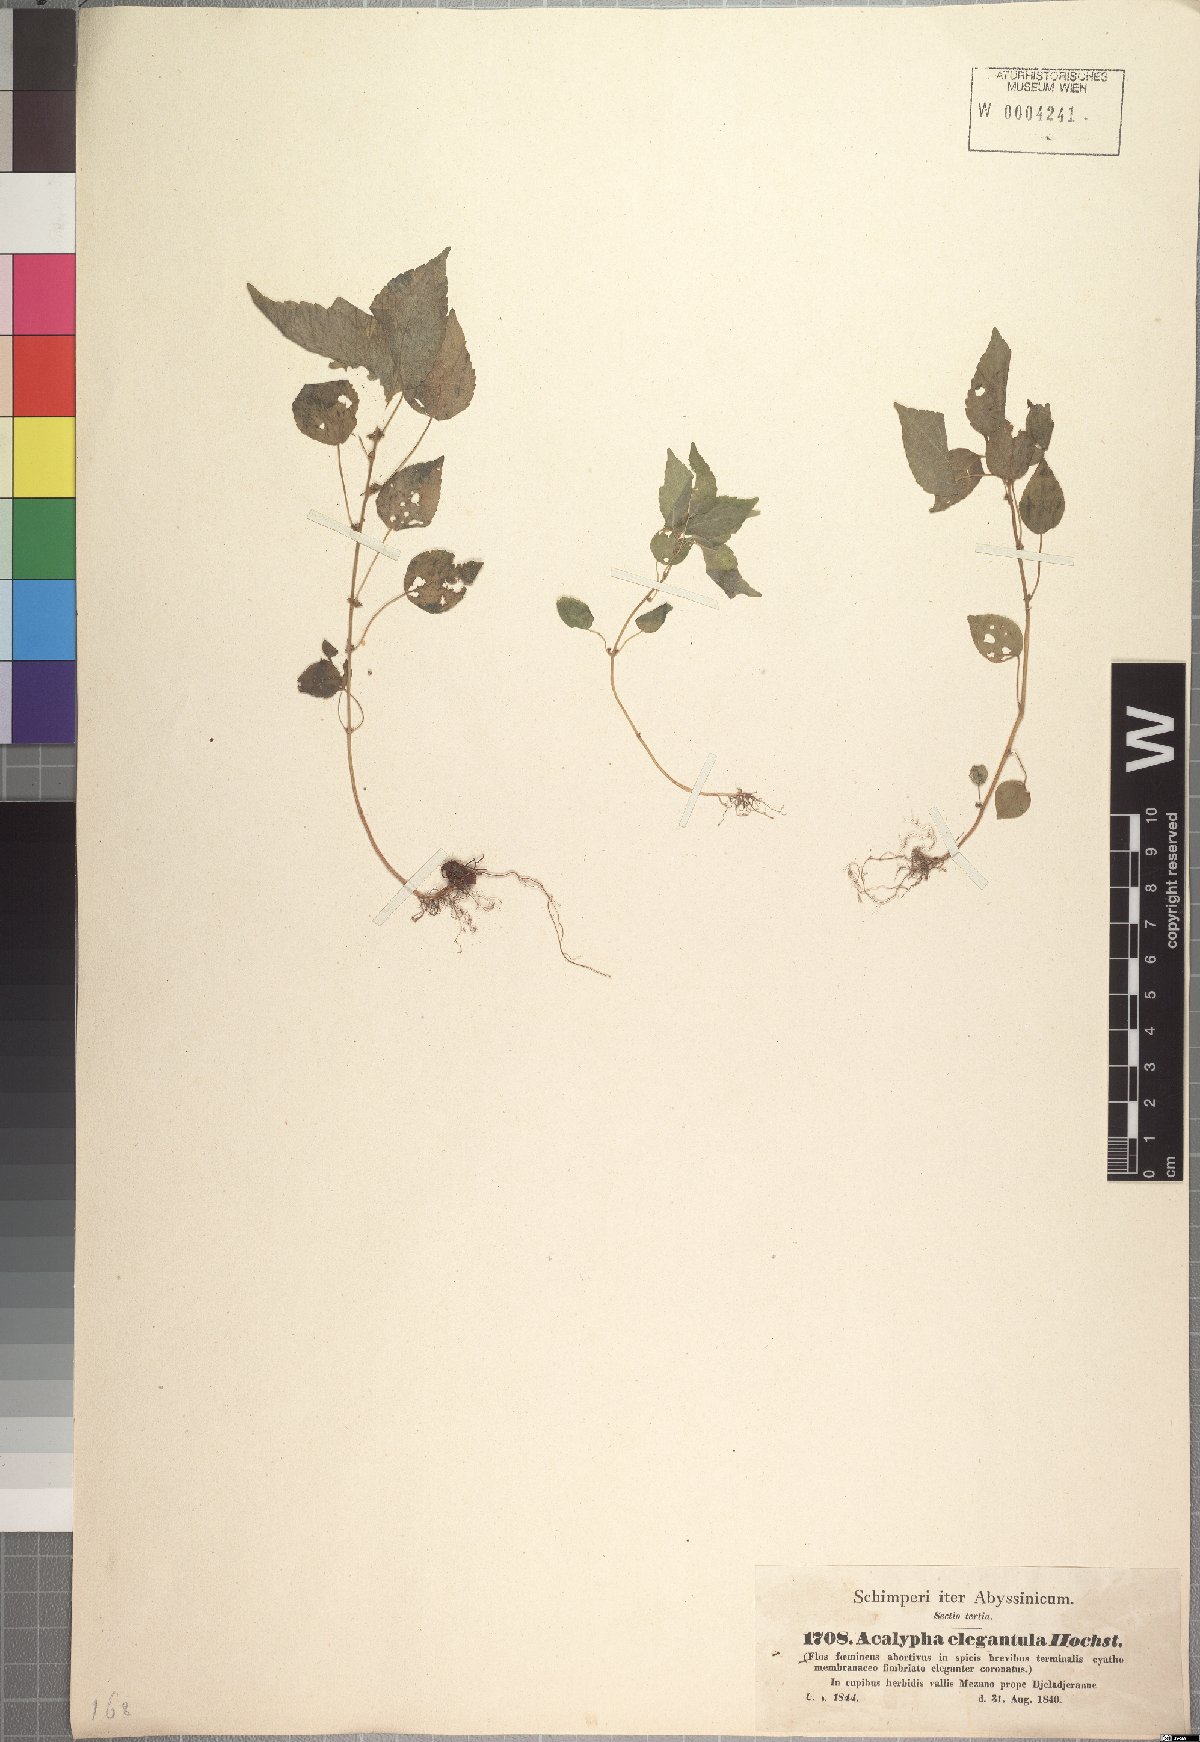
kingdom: Plantae
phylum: Tracheophyta
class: Magnoliopsida
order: Malpighiales
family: Euphorbiaceae
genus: Acalypha
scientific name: Acalypha brachystachya
